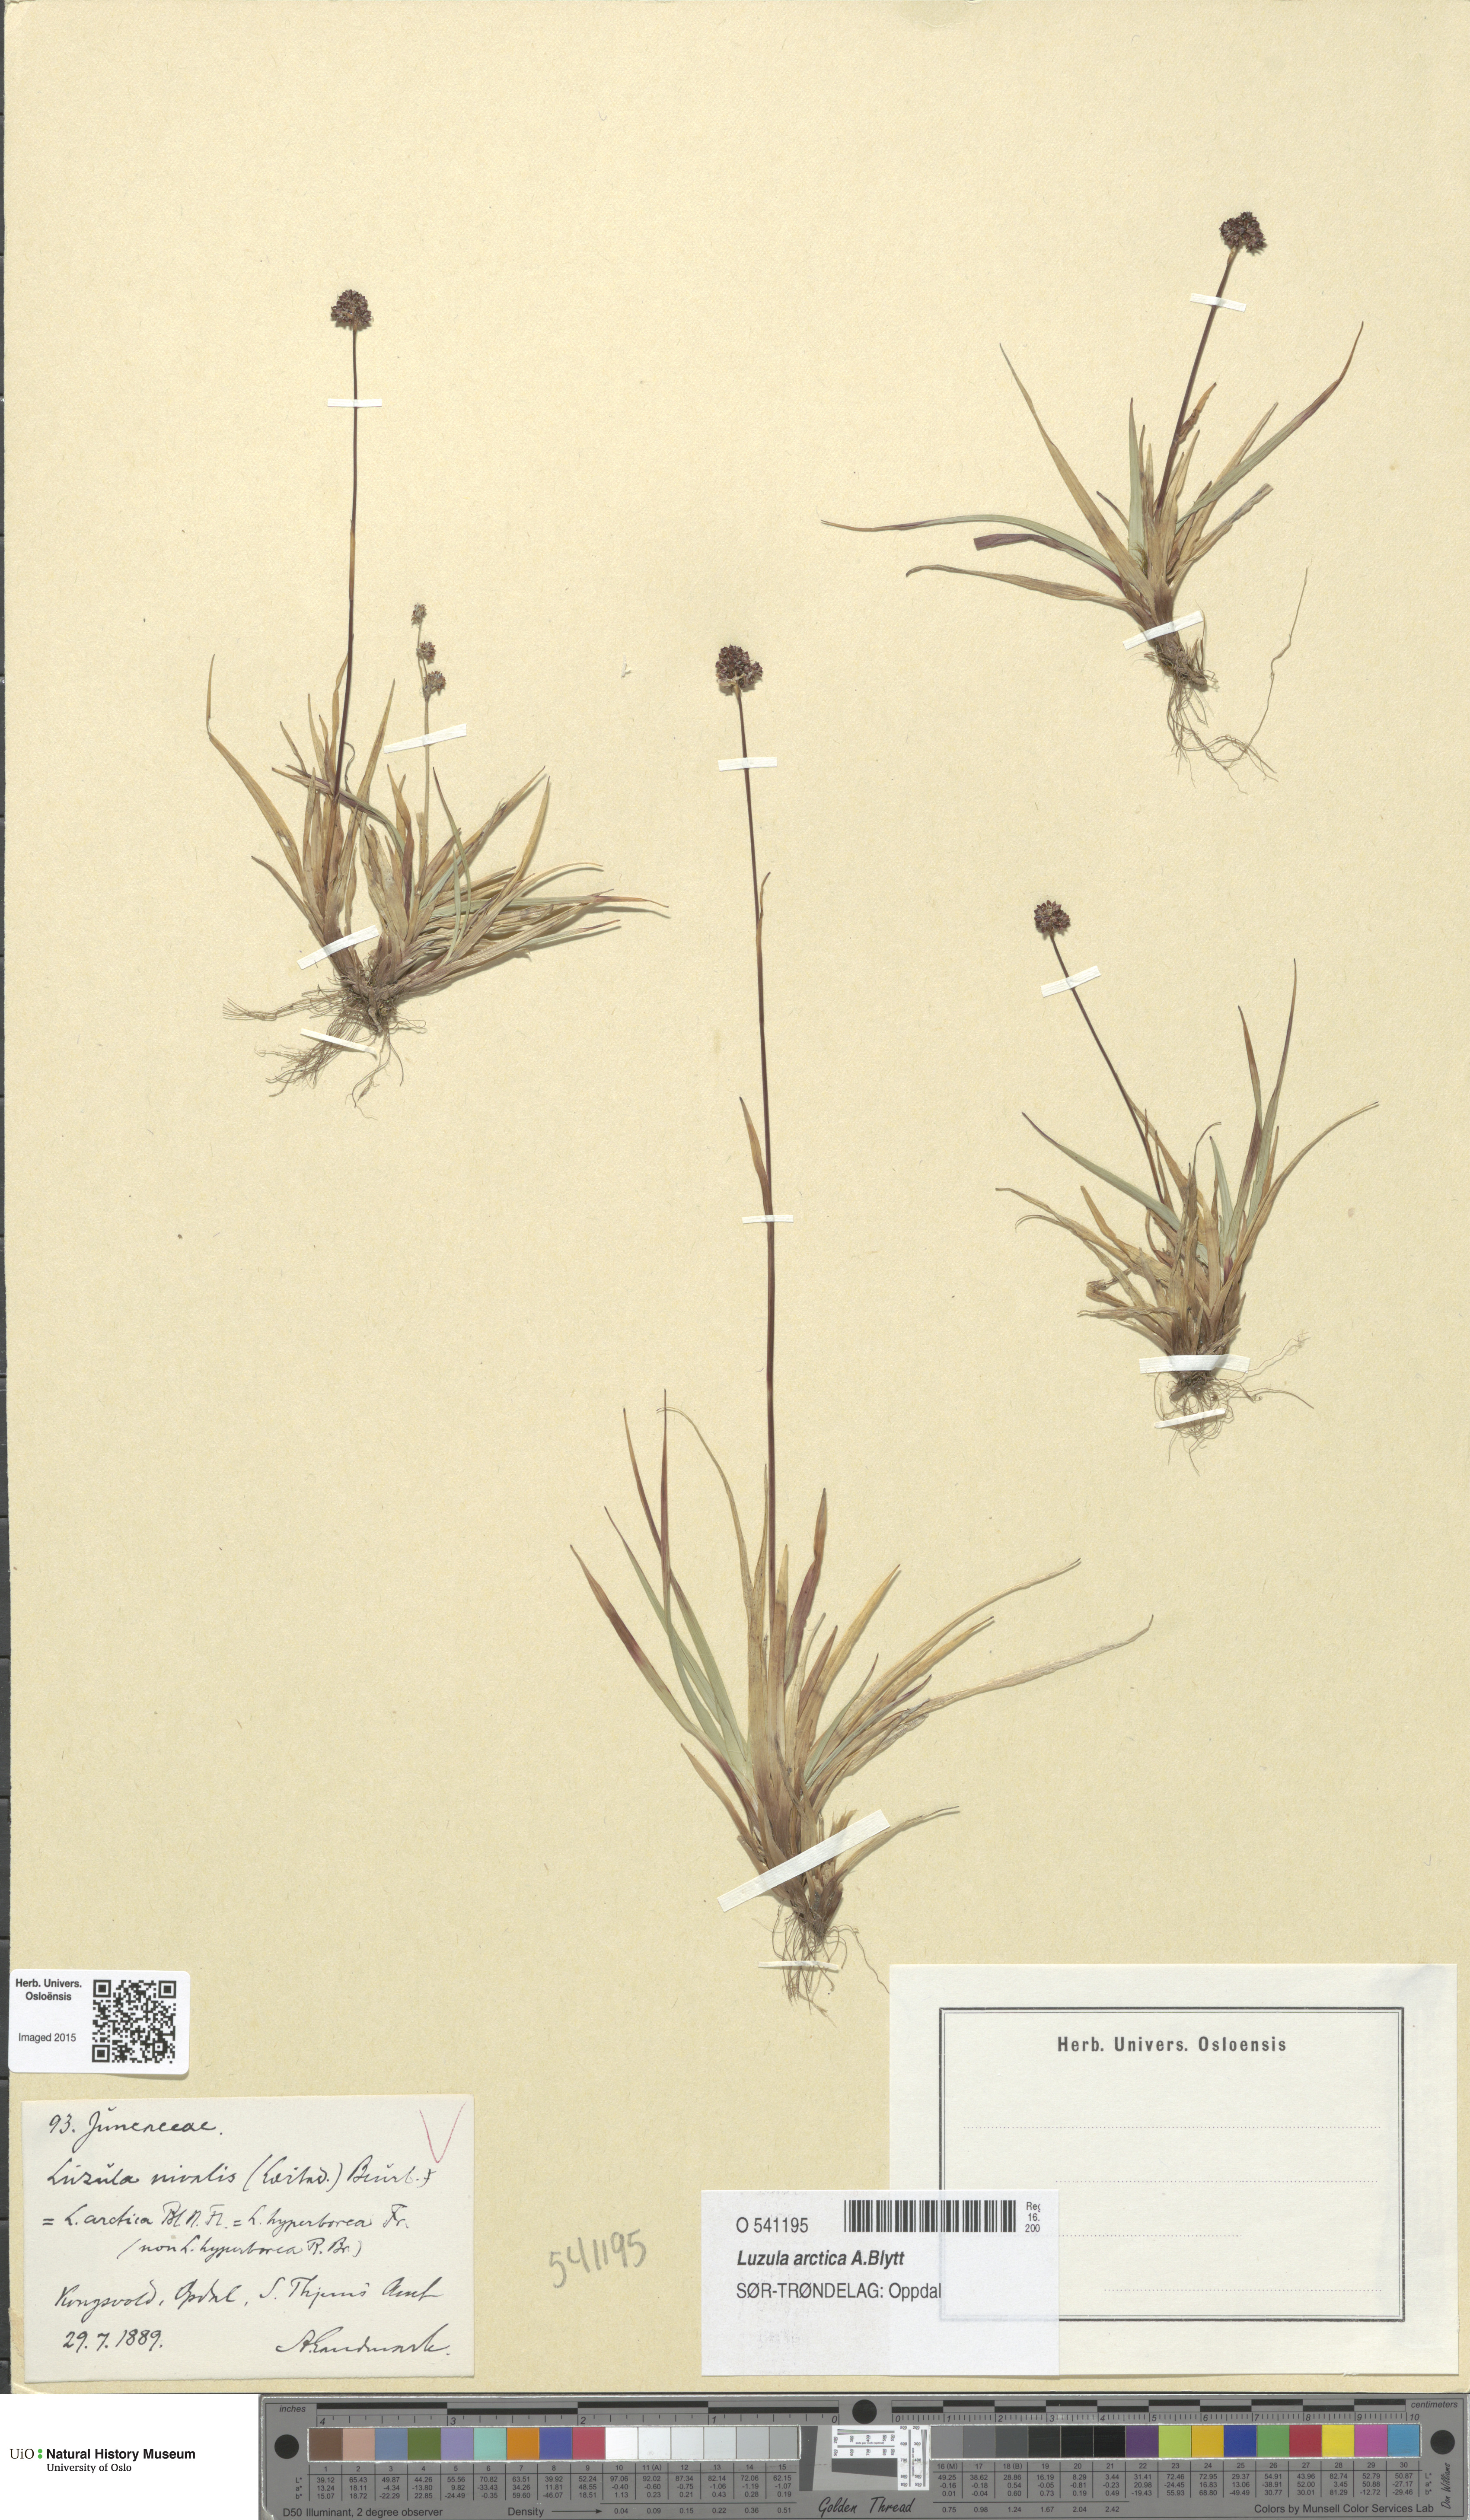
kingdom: Plantae
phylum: Tracheophyta
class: Liliopsida
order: Poales
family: Juncaceae
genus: Luzula
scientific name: Luzula nivalis
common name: Arctic woodrush
